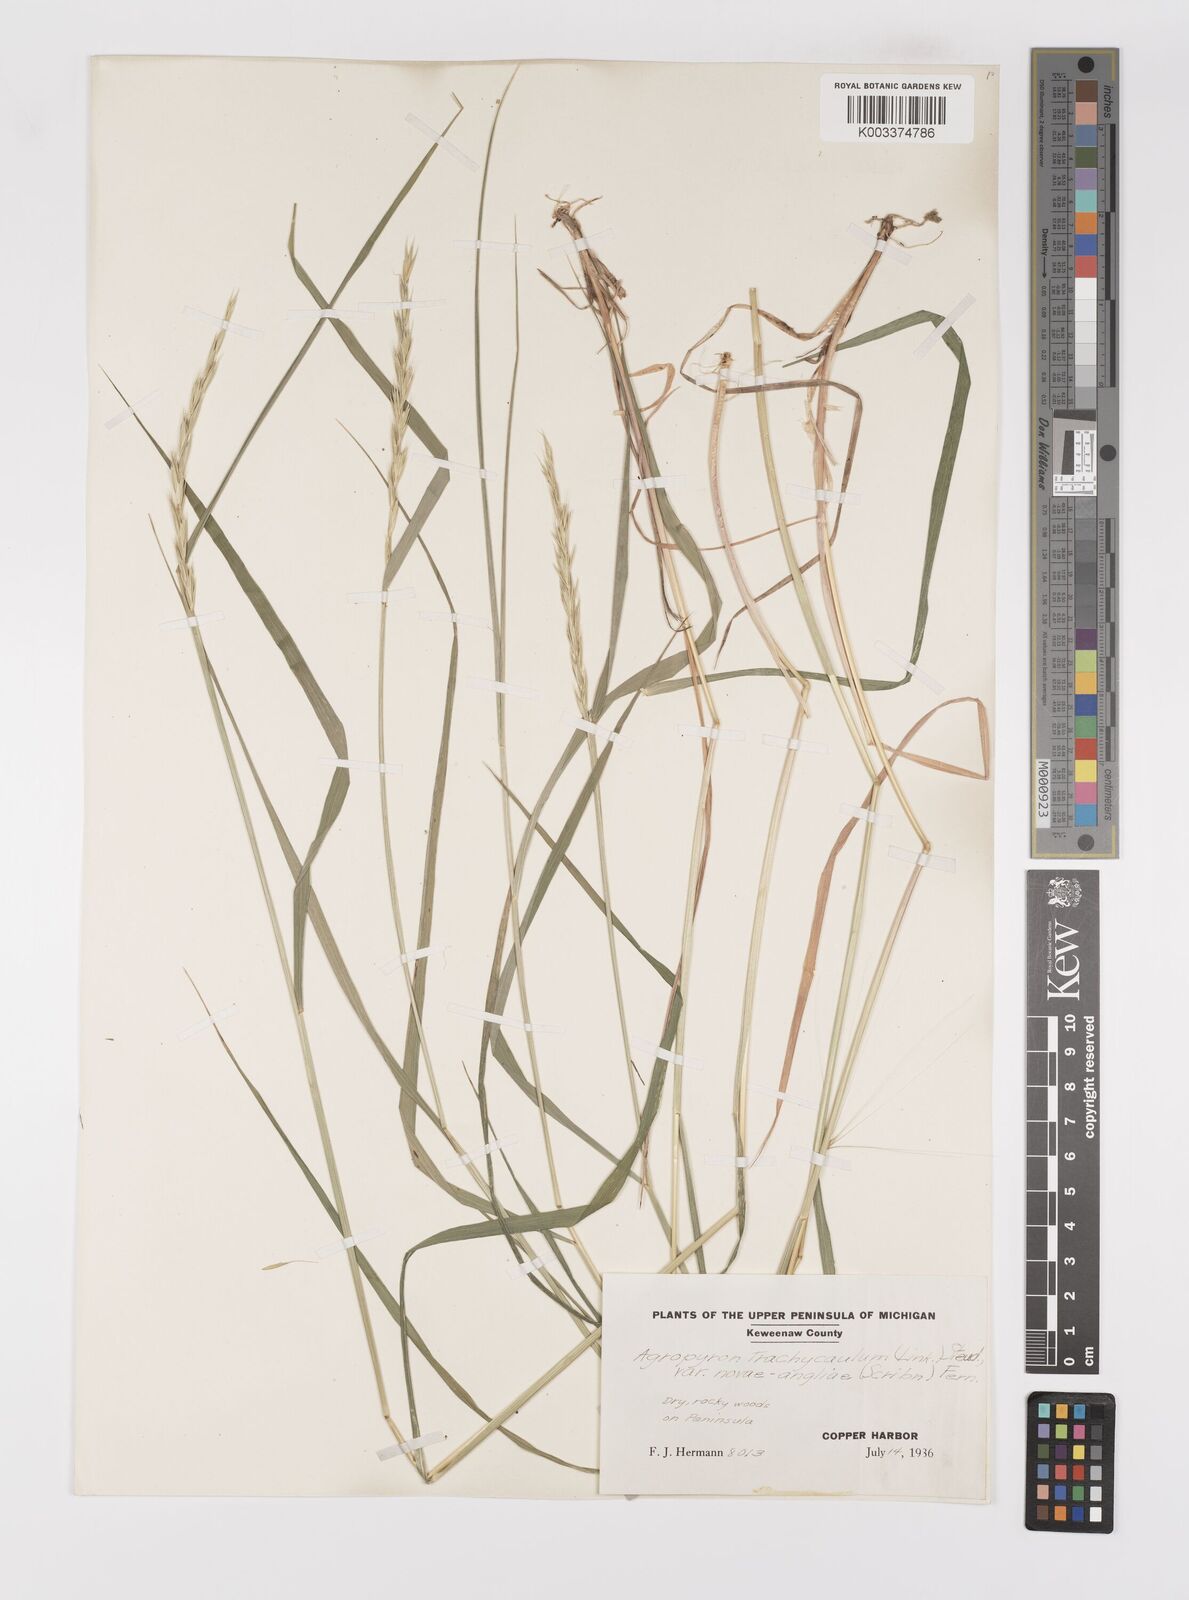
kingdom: Plantae
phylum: Tracheophyta
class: Liliopsida
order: Poales
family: Poaceae
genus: Elymus
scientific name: Elymus violaceus
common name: Arctic wheatgrass
